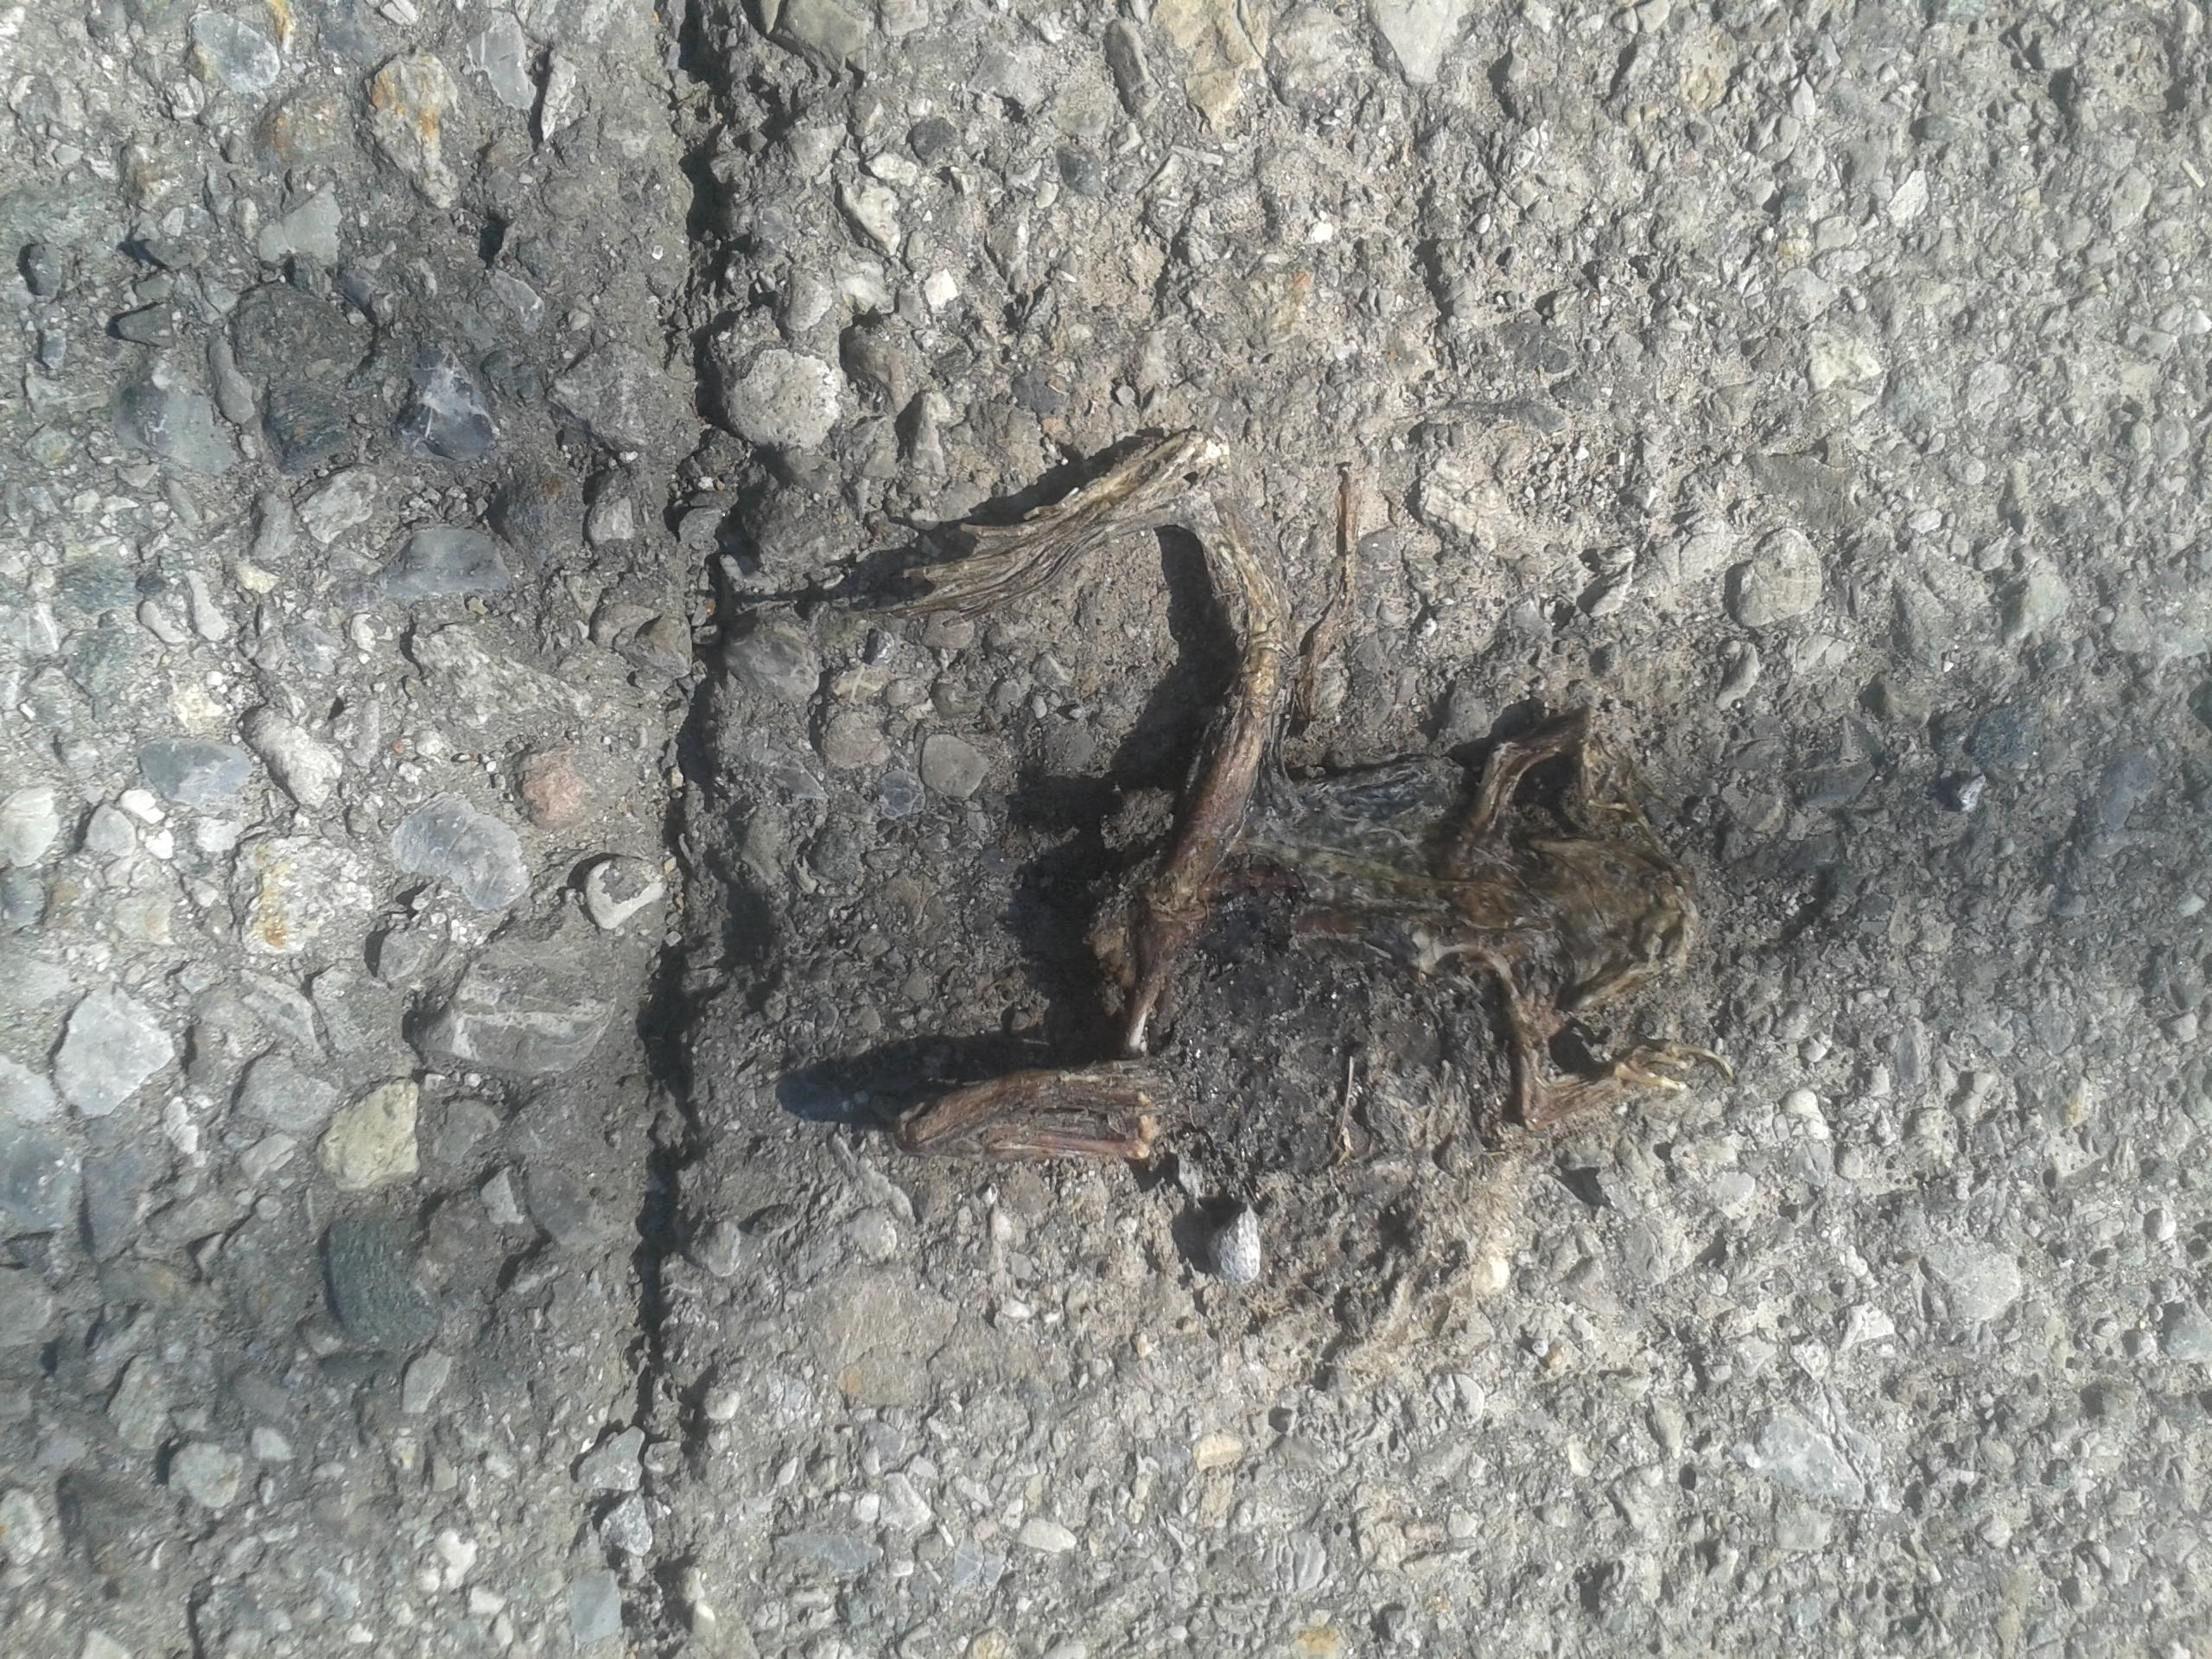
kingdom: Animalia
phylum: Chordata
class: Amphibia
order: Anura
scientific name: Anura
